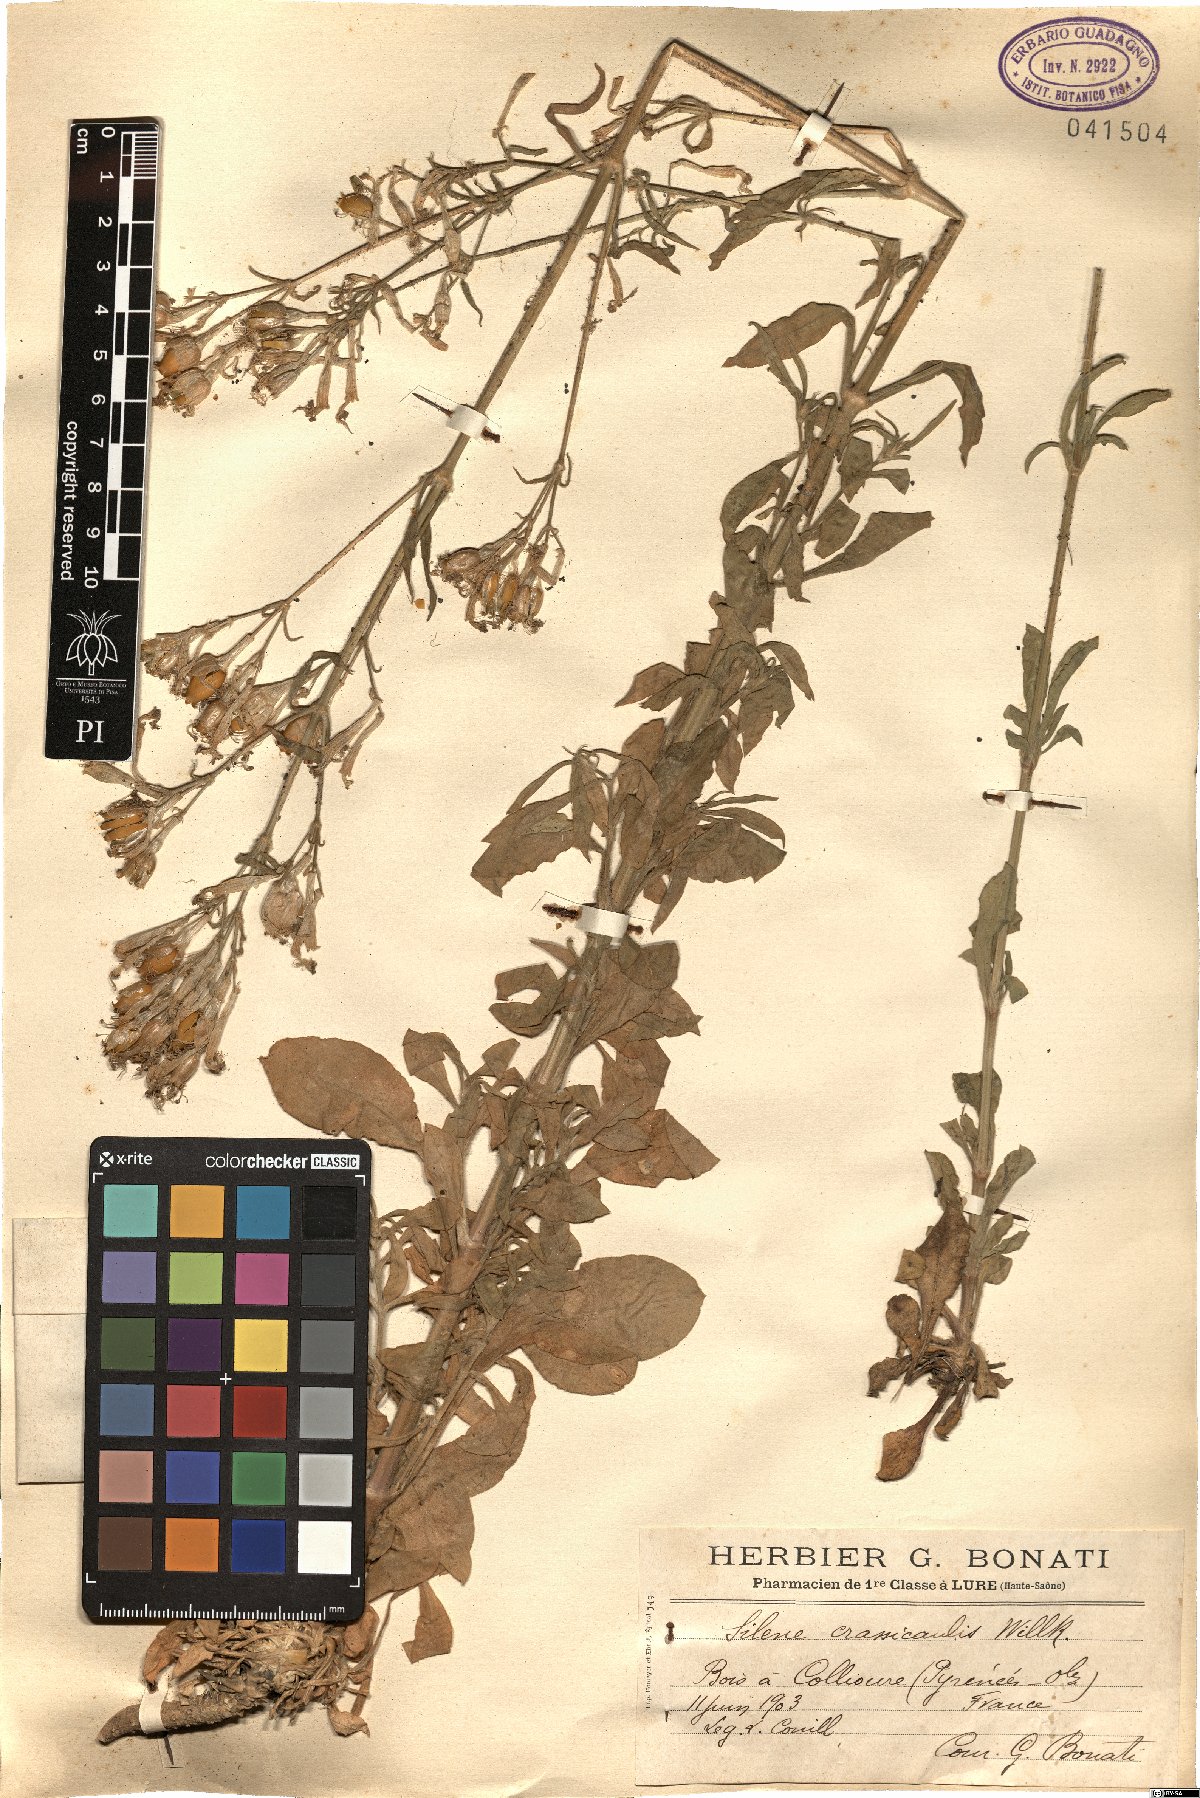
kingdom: Plantae
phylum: Tracheophyta
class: Magnoliopsida
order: Caryophyllales
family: Caryophyllaceae
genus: Silene
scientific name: Silene nemoralis
